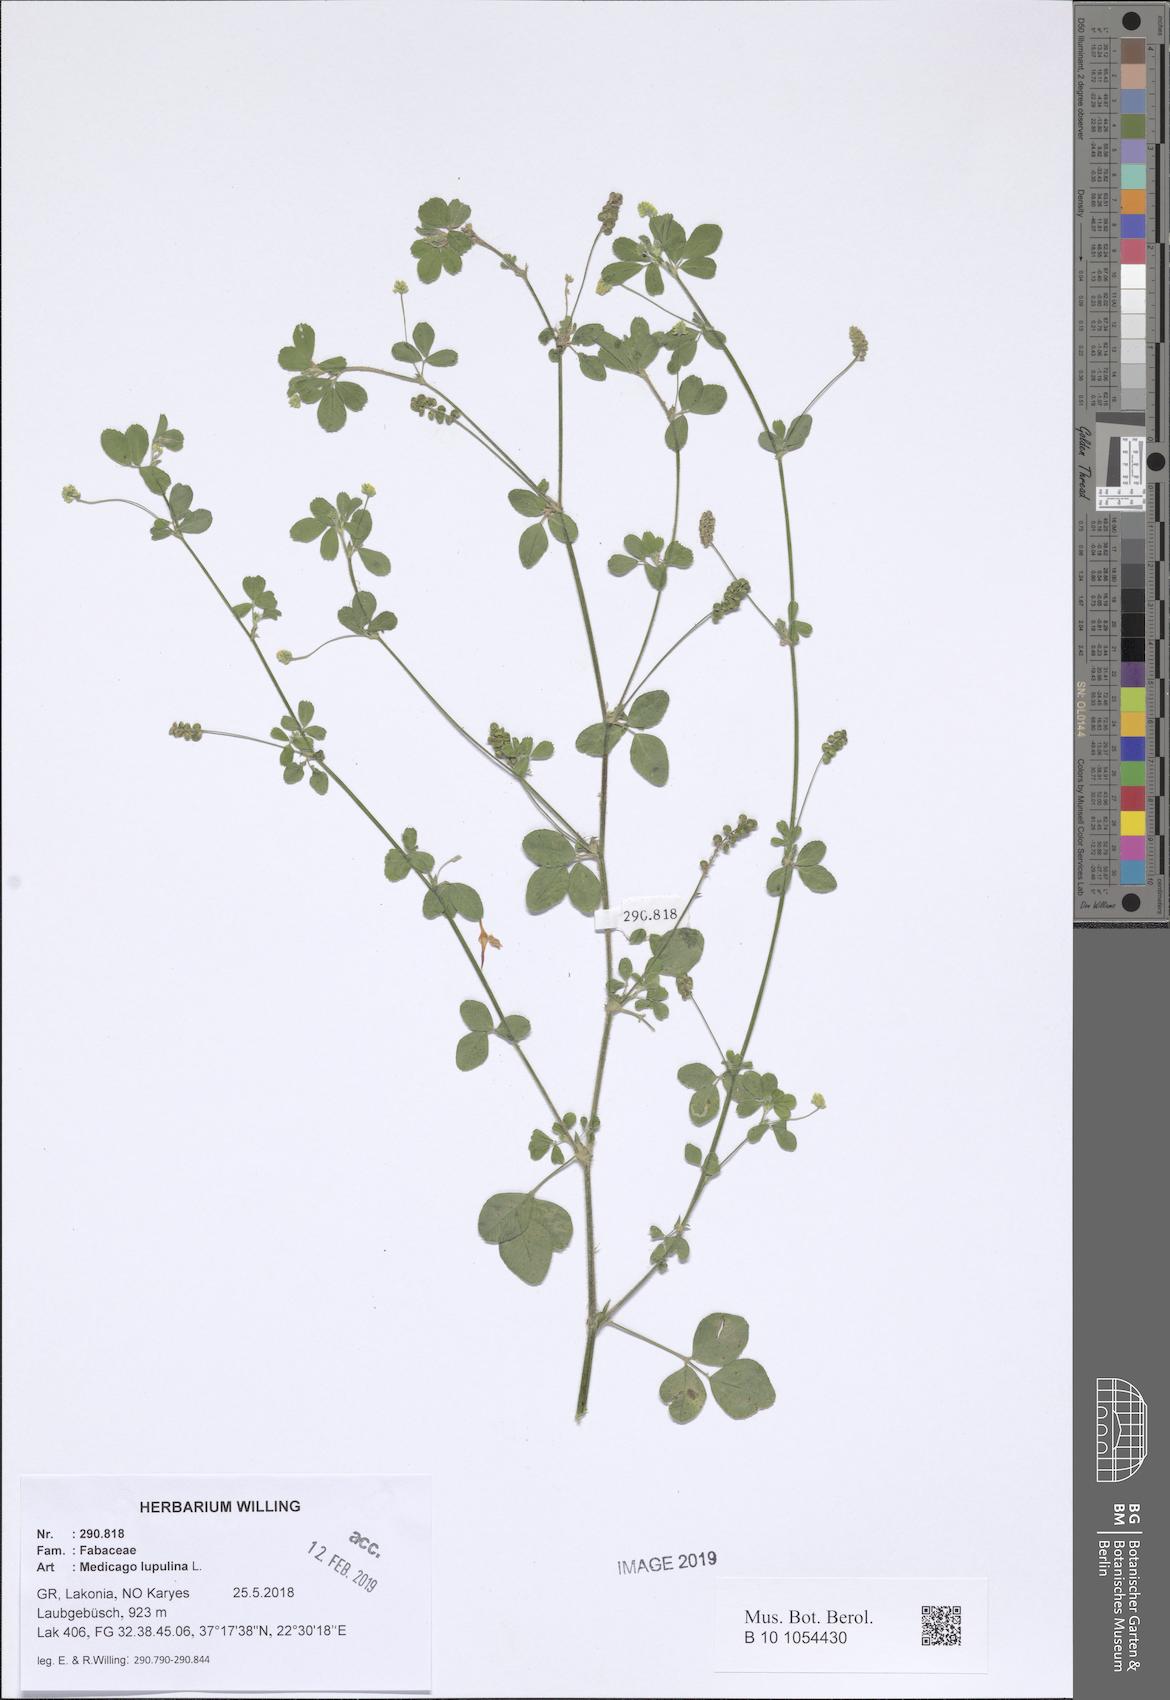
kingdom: Plantae
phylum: Tracheophyta
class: Magnoliopsida
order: Fabales
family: Fabaceae
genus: Medicago
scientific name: Medicago lupulina
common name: Black medick
